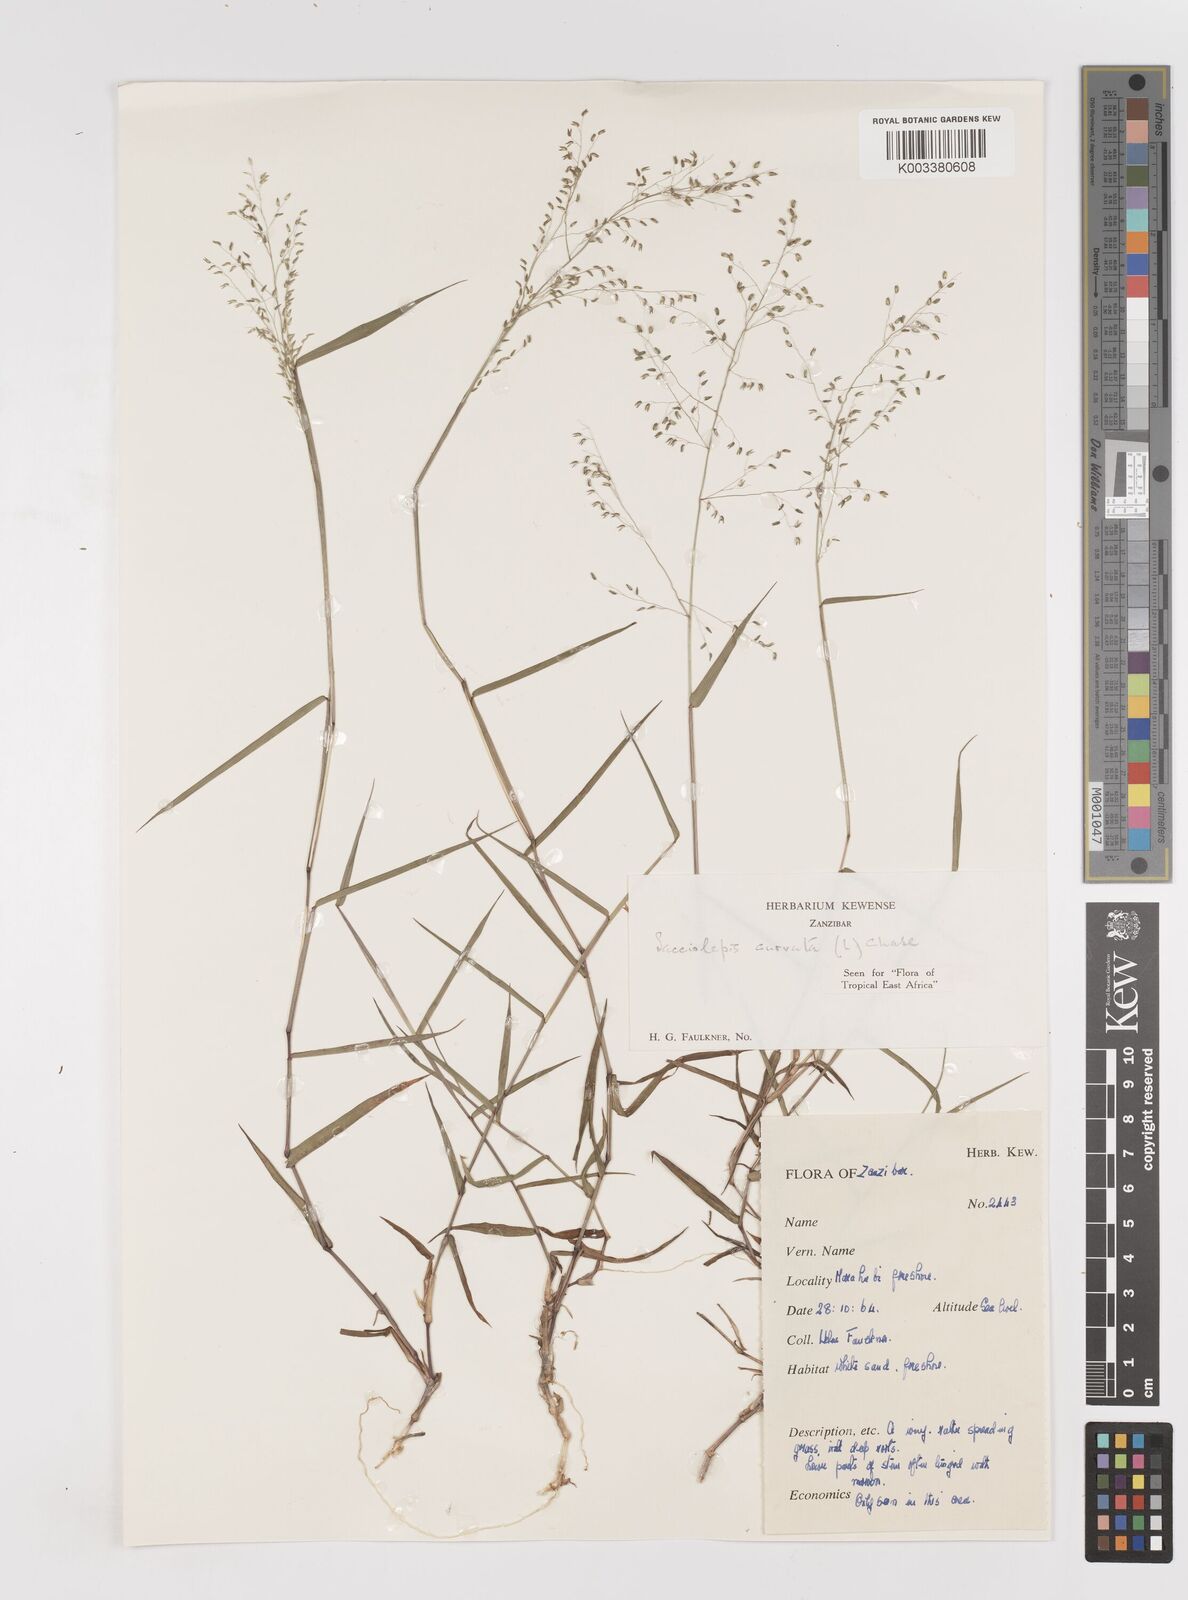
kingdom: Plantae
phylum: Tracheophyta
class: Liliopsida
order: Poales
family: Poaceae
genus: Sacciolepis
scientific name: Sacciolepis curvata
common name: Forest hood grass
